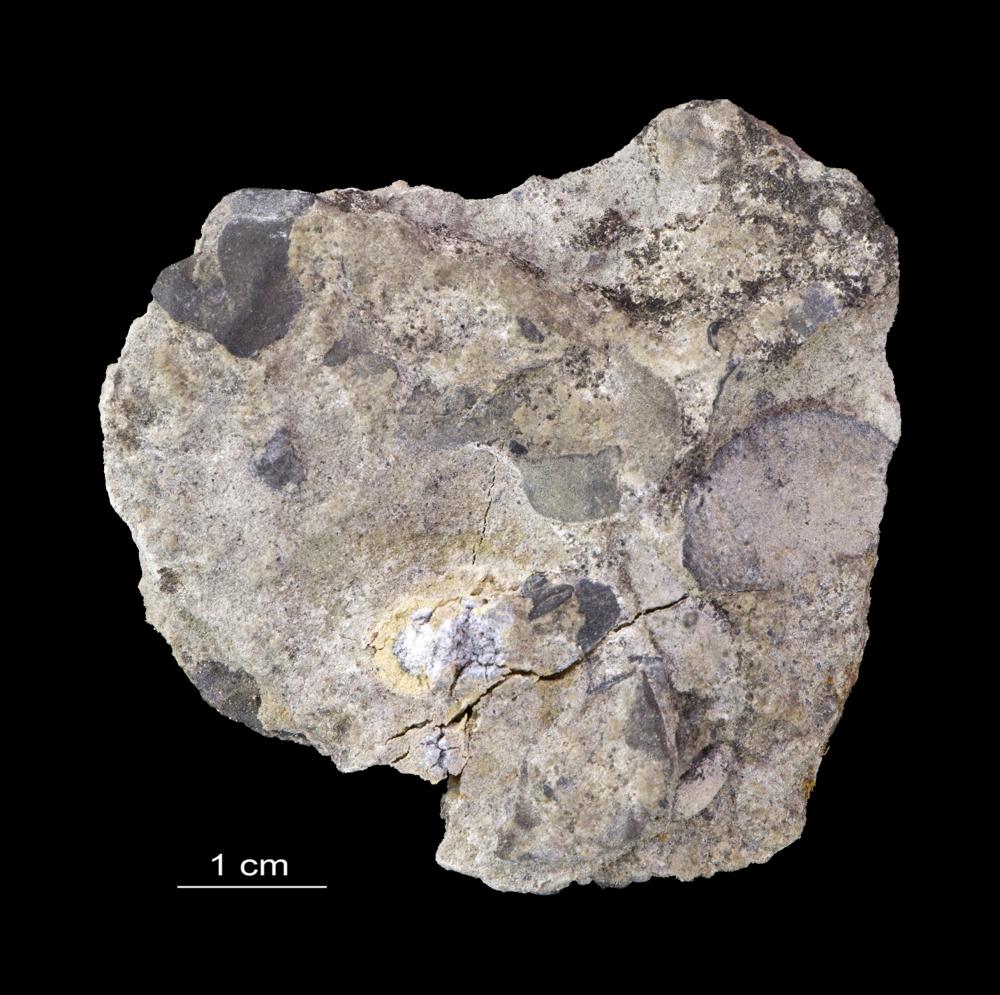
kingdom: Animalia
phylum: Brachiopoda
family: Paterinidae
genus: Mickwitzia
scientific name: Mickwitzia
